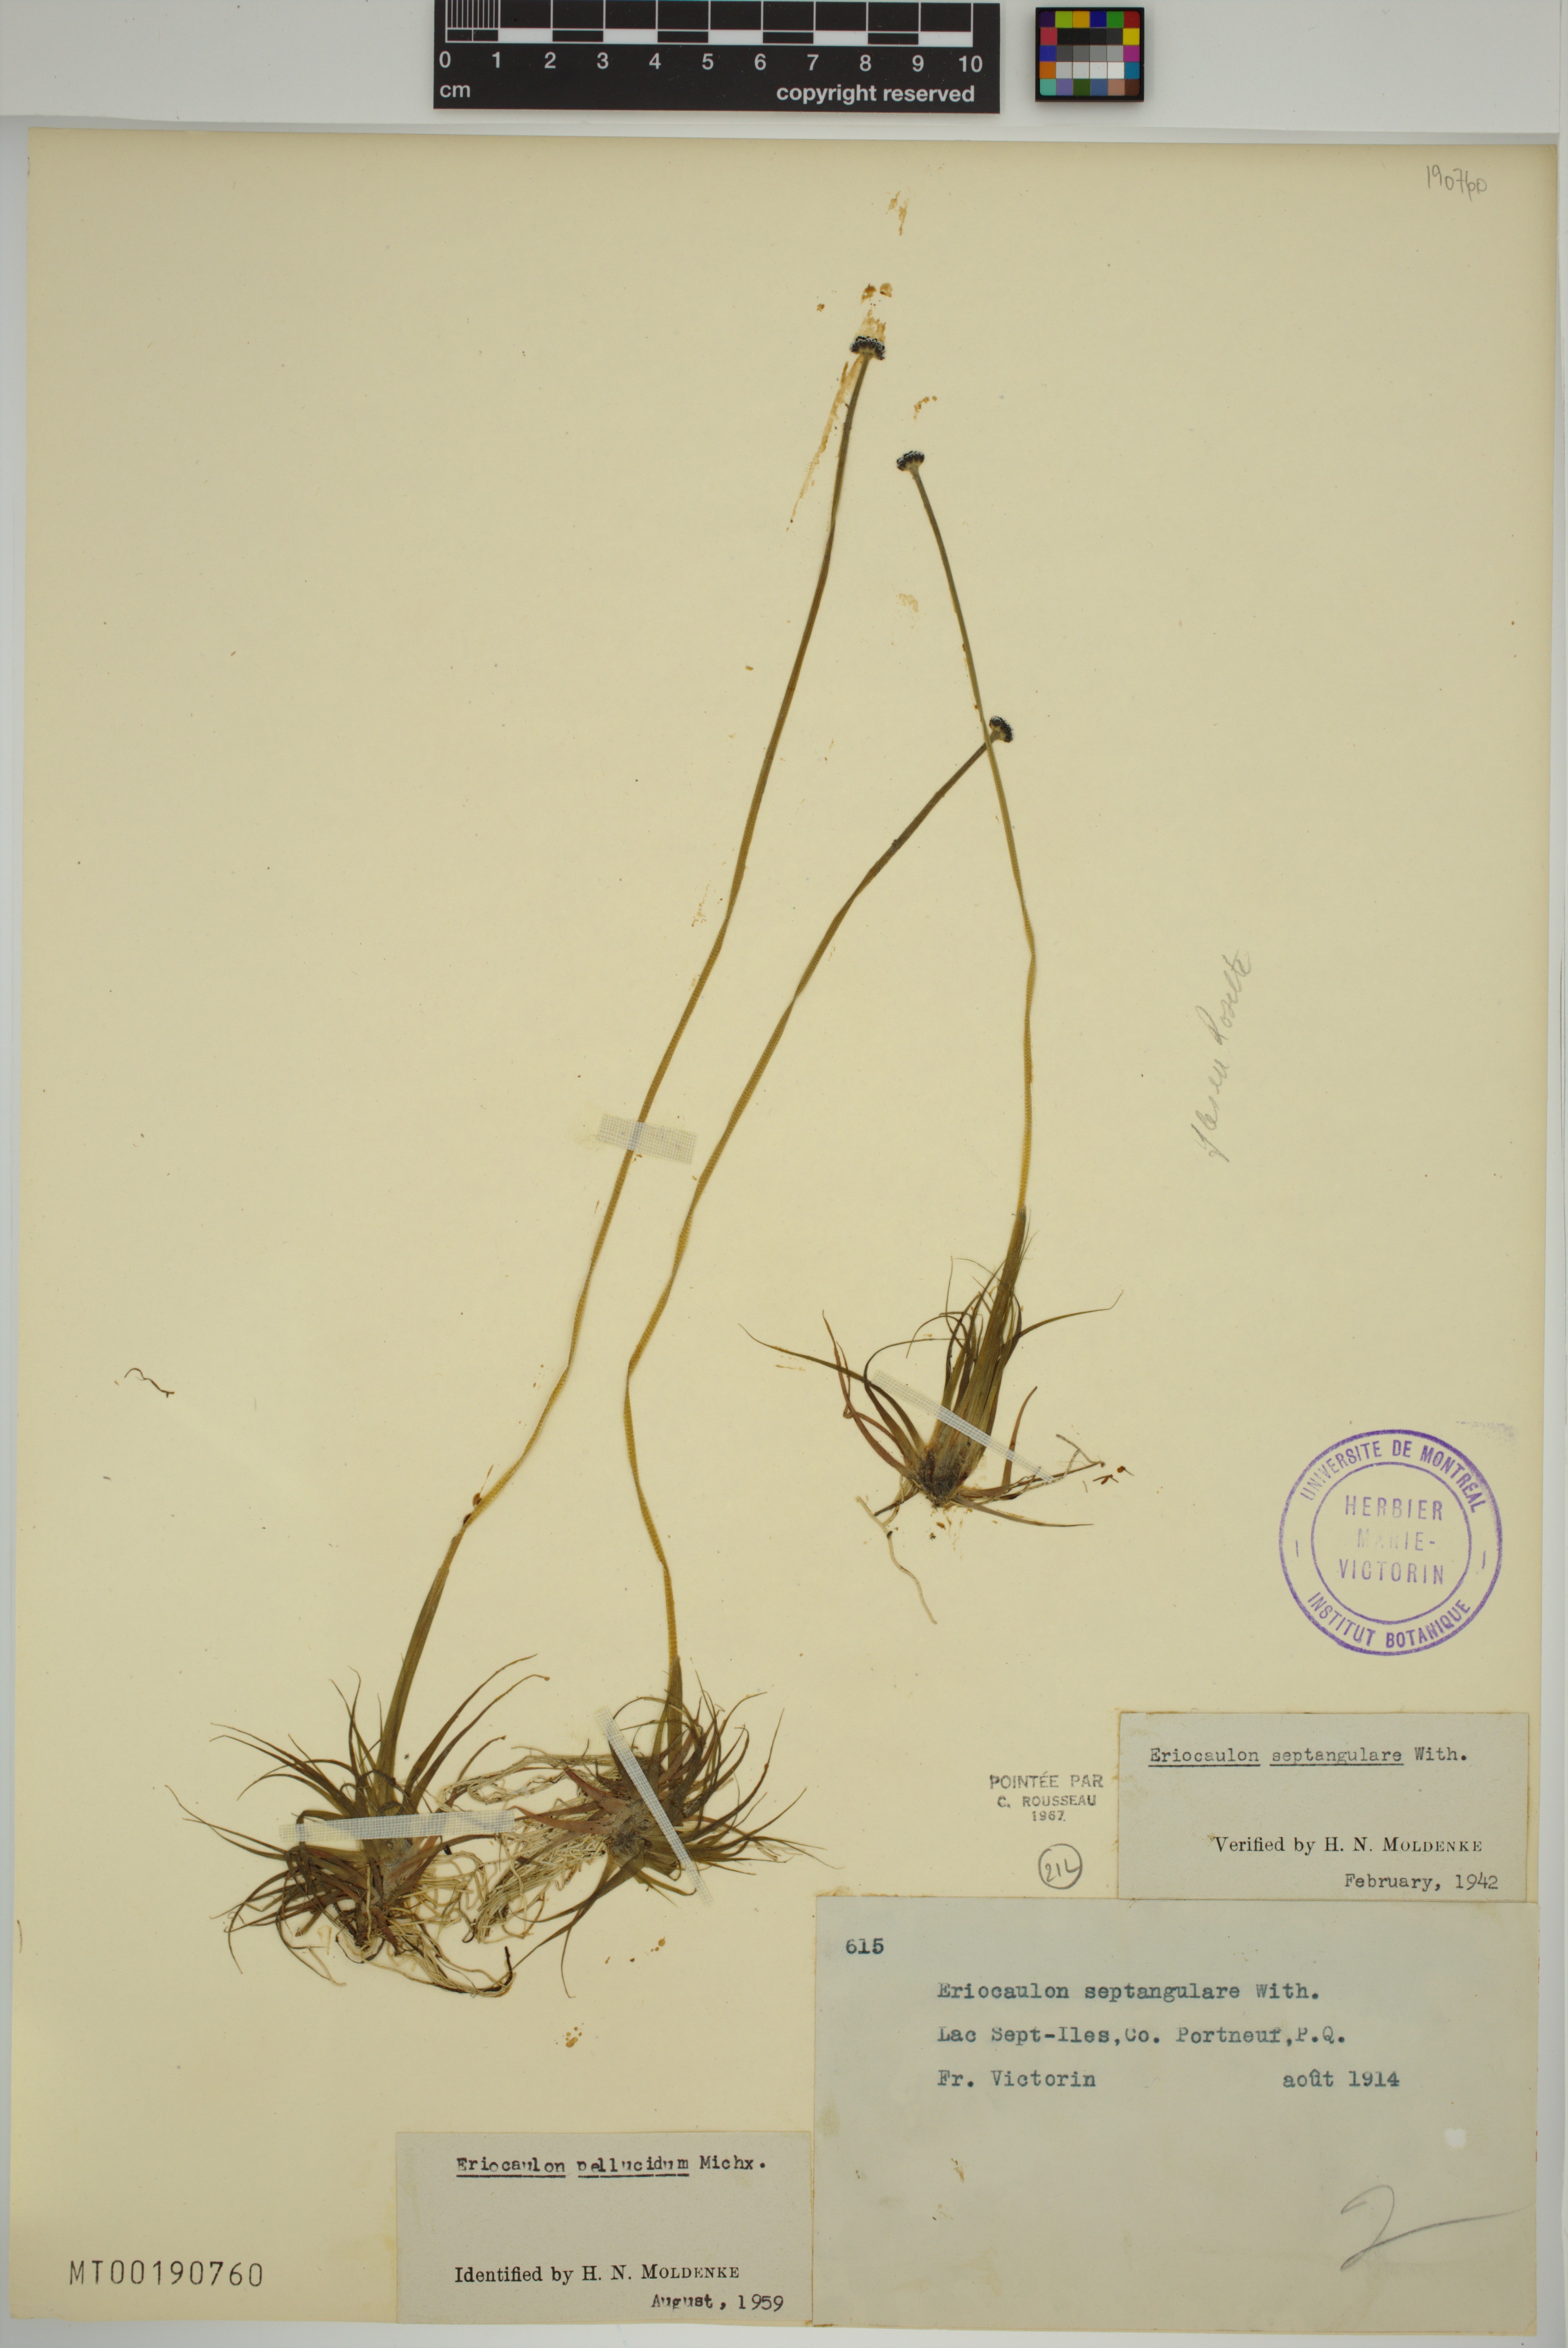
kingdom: Plantae
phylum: Tracheophyta
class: Liliopsida
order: Poales
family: Eriocaulaceae
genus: Eriocaulon
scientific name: Eriocaulon aquaticum
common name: Pipewort
